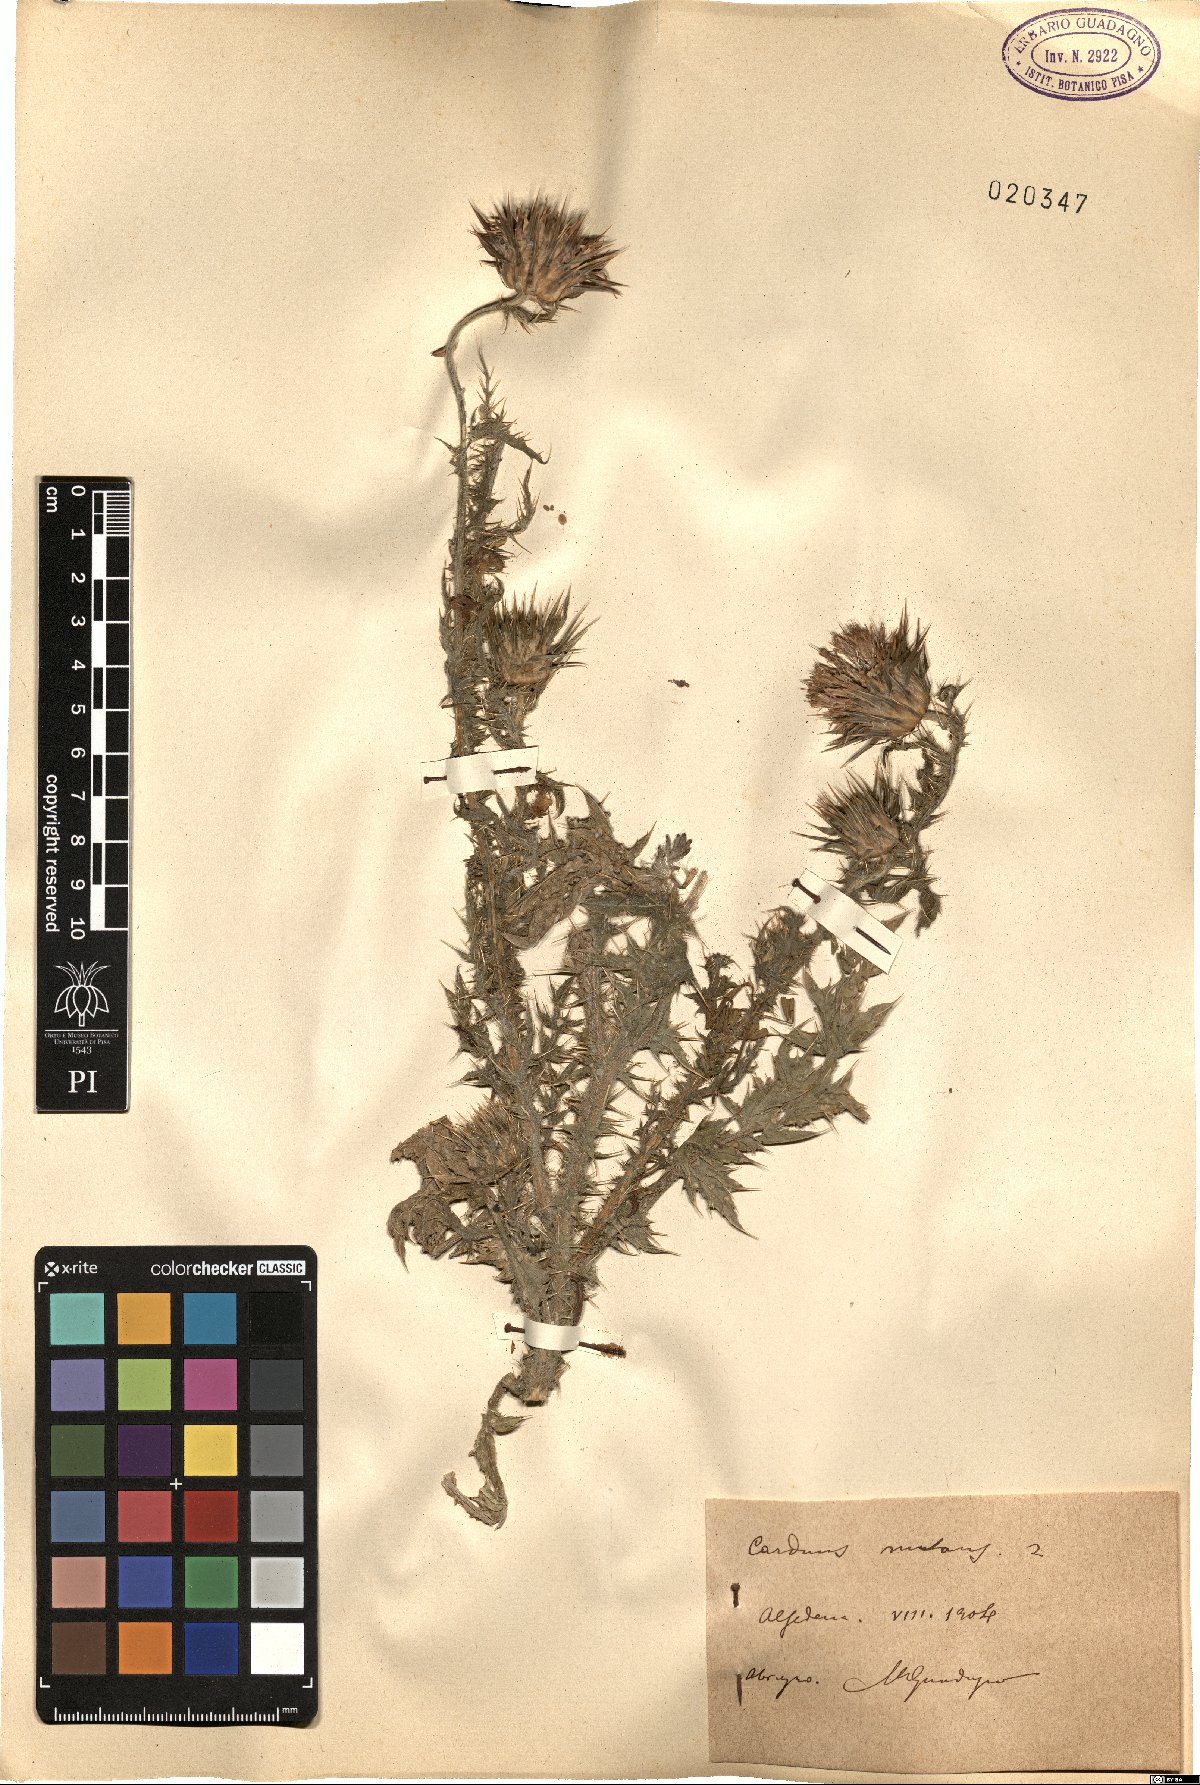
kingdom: Plantae
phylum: Tracheophyta
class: Magnoliopsida
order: Asterales
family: Asteraceae
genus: Carduus
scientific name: Carduus nutans
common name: Musk thistle
